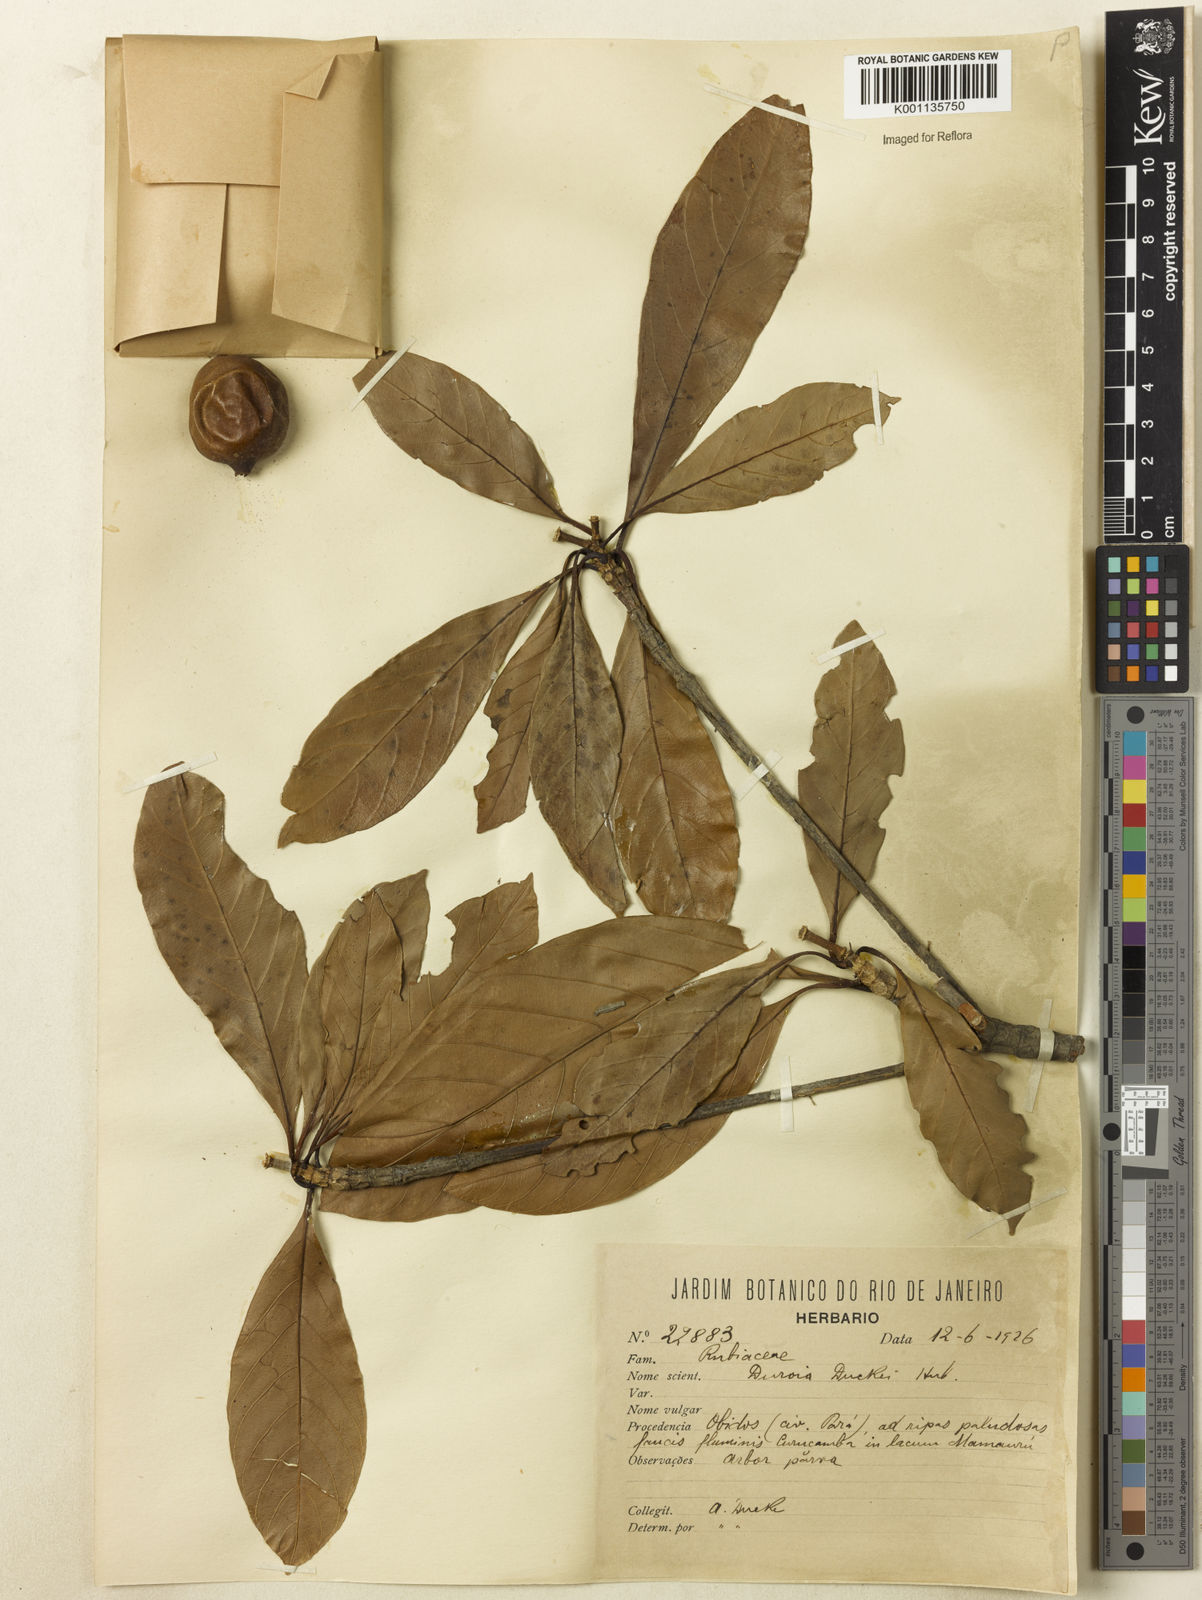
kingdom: Plantae
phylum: Tracheophyta
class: Magnoliopsida
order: Gentianales
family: Rubiaceae
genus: Duroia
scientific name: Duroia duckei
